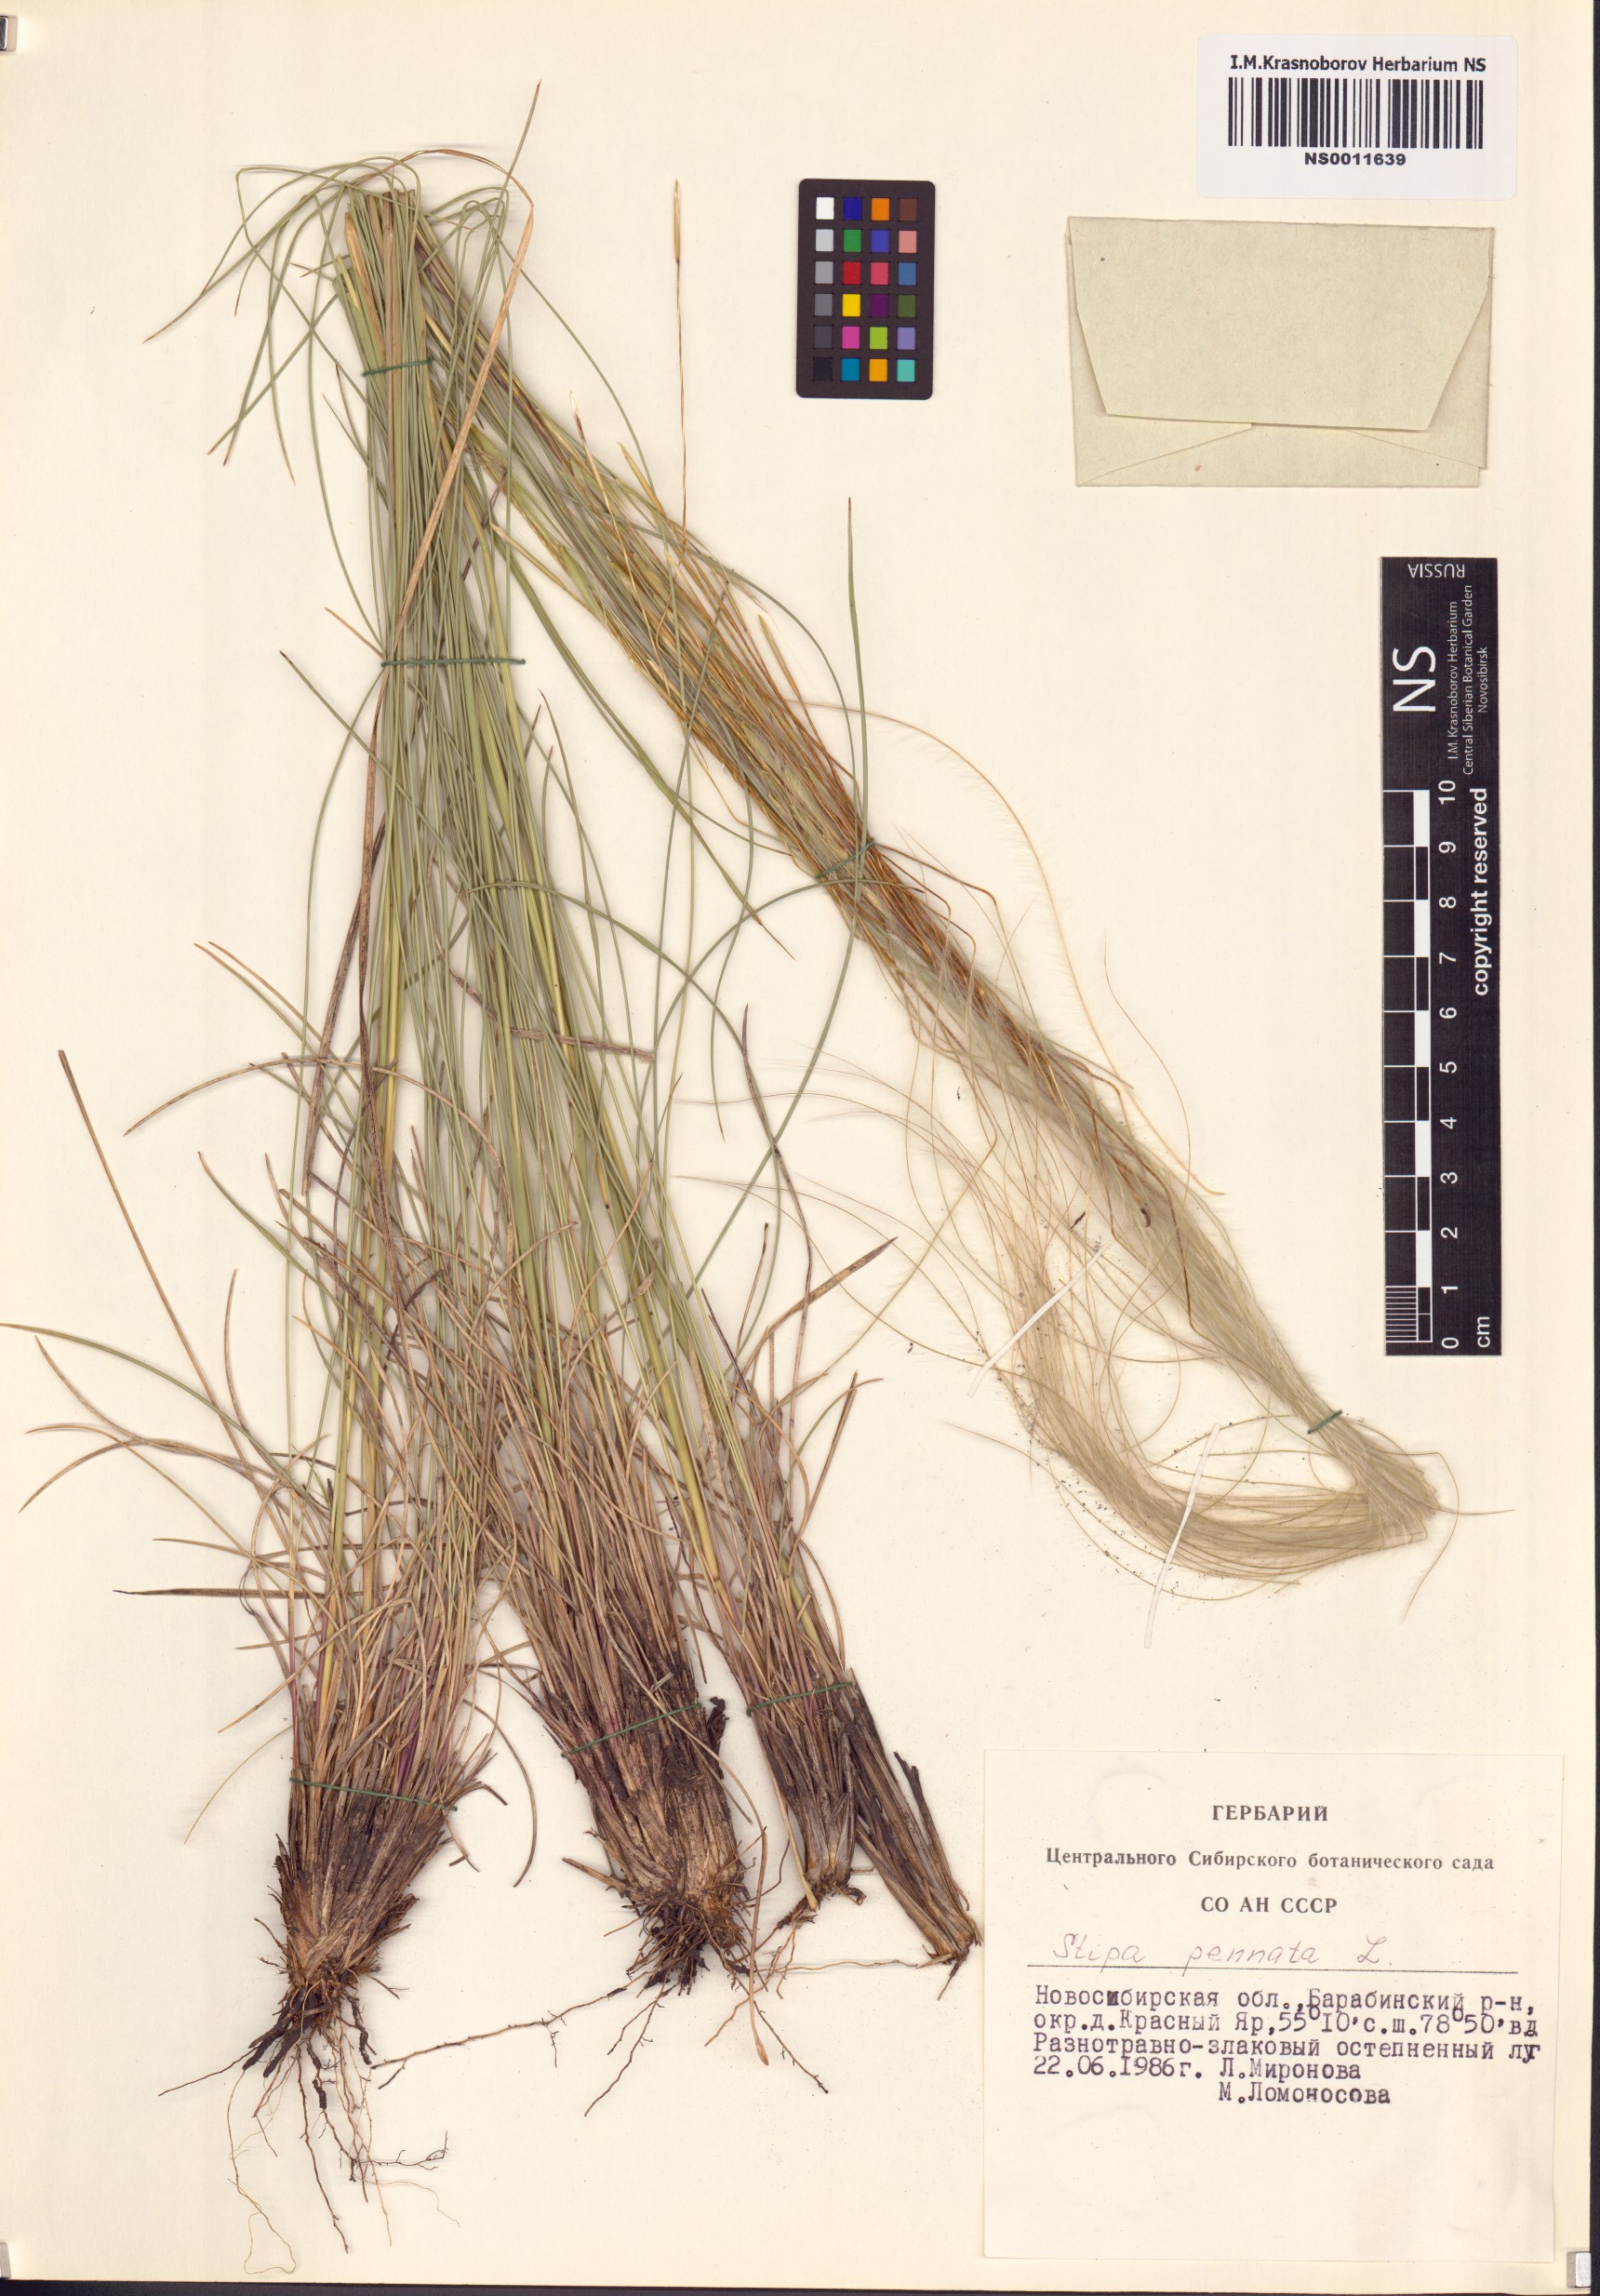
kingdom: Plantae
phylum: Tracheophyta
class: Liliopsida
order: Poales
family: Poaceae
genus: Stipa
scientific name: Stipa pennata
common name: European feather grass
